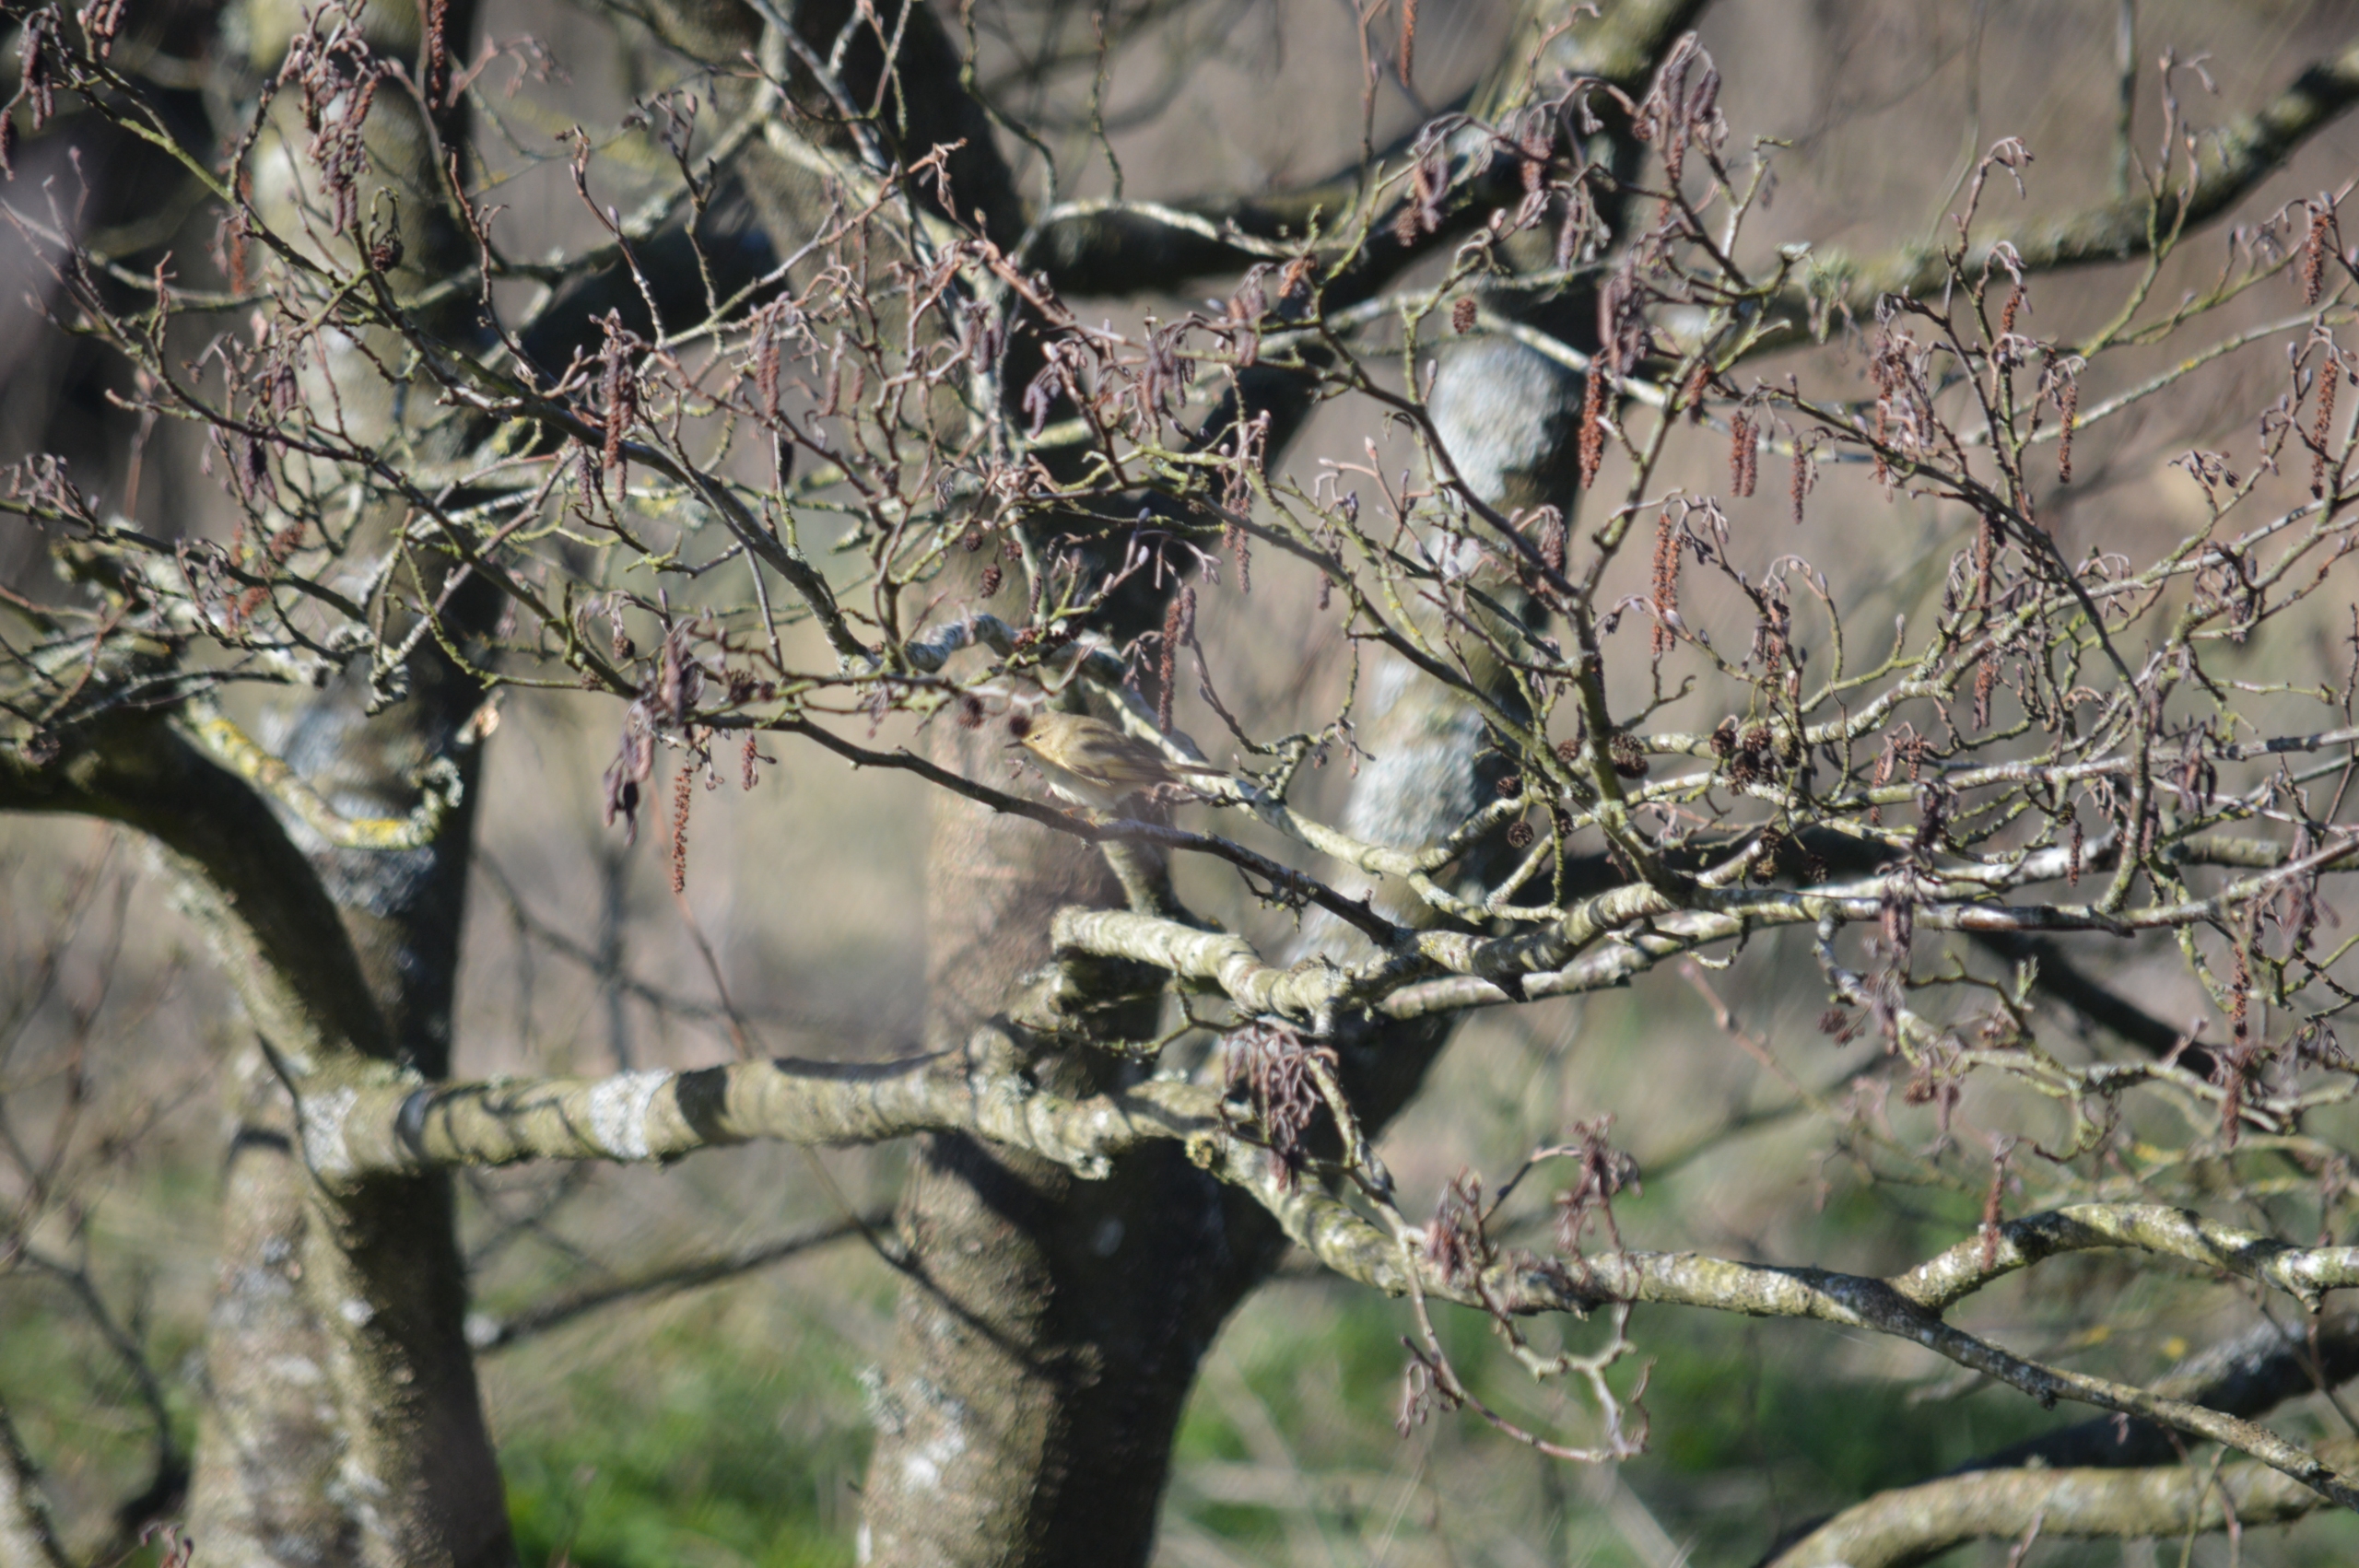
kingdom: Animalia
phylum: Chordata
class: Aves
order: Passeriformes
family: Phylloscopidae
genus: Phylloscopus
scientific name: Phylloscopus collybita
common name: Gransanger
